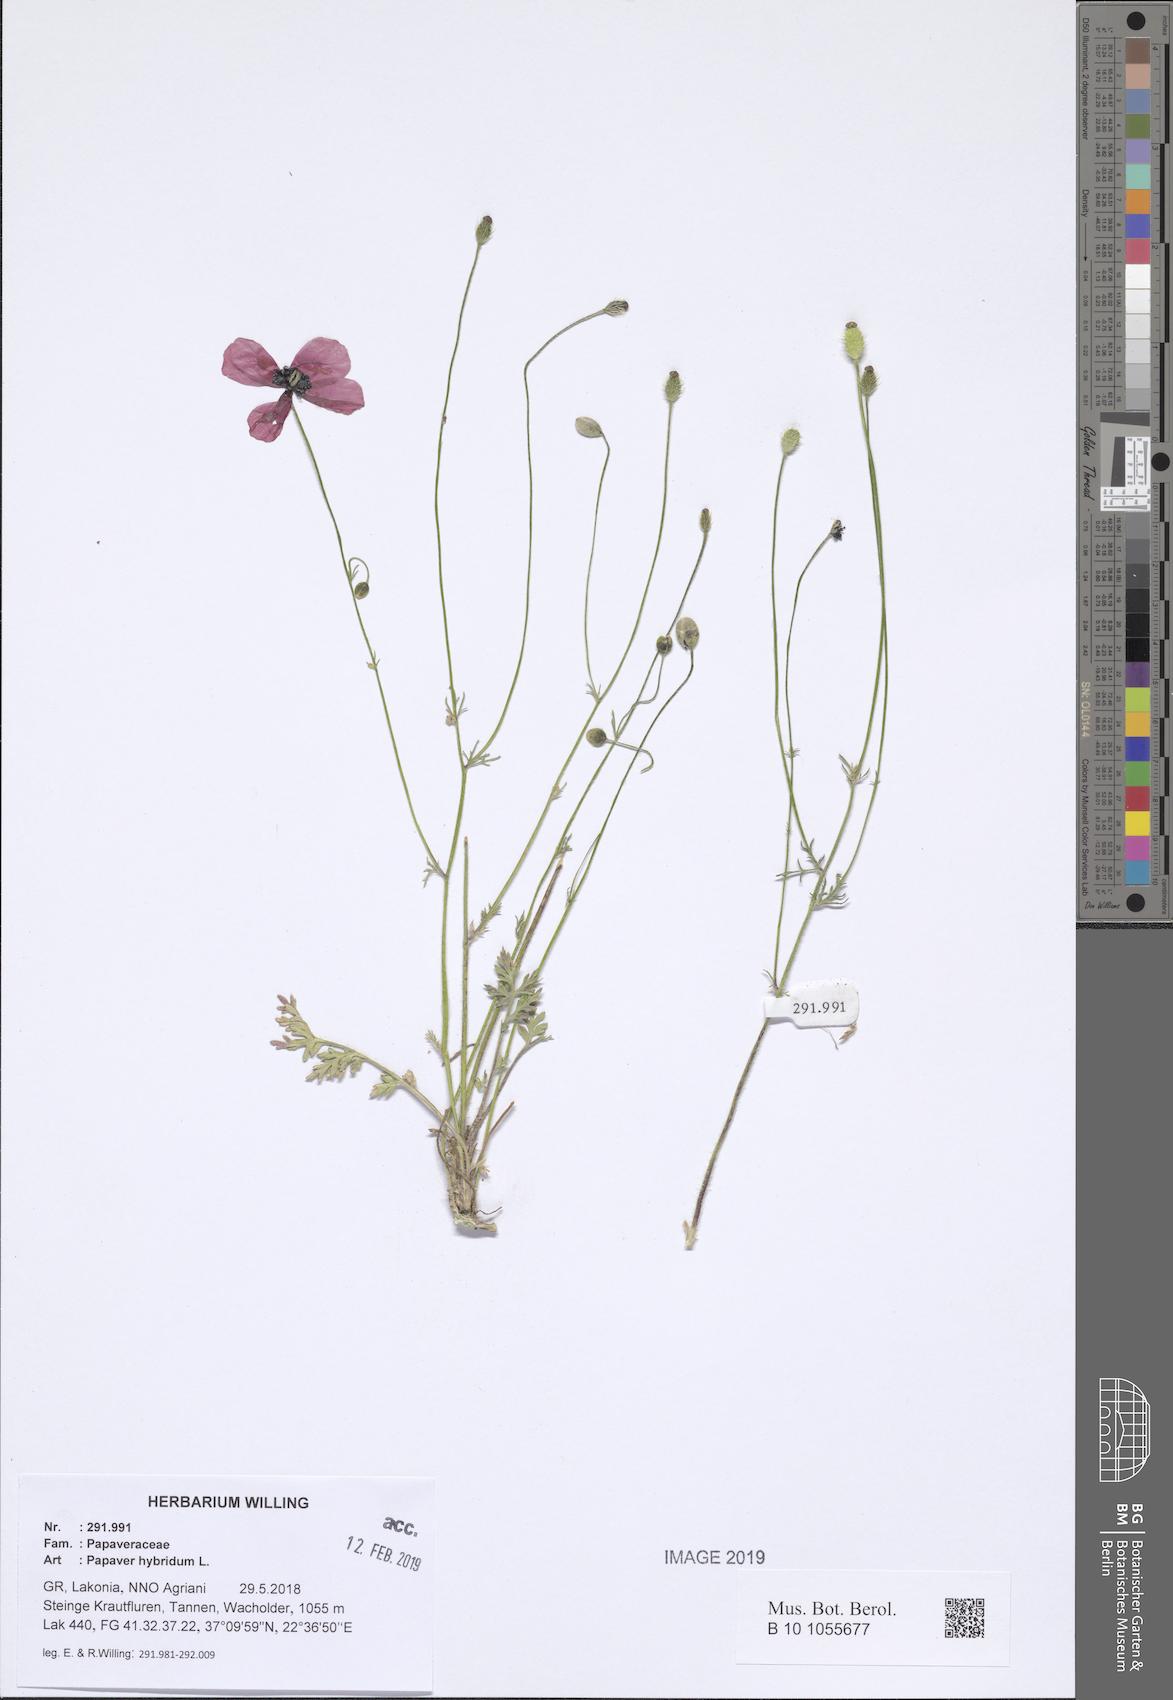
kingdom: Plantae
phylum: Tracheophyta
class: Magnoliopsida
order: Ranunculales
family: Papaveraceae
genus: Roemeria
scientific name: Roemeria hispida
